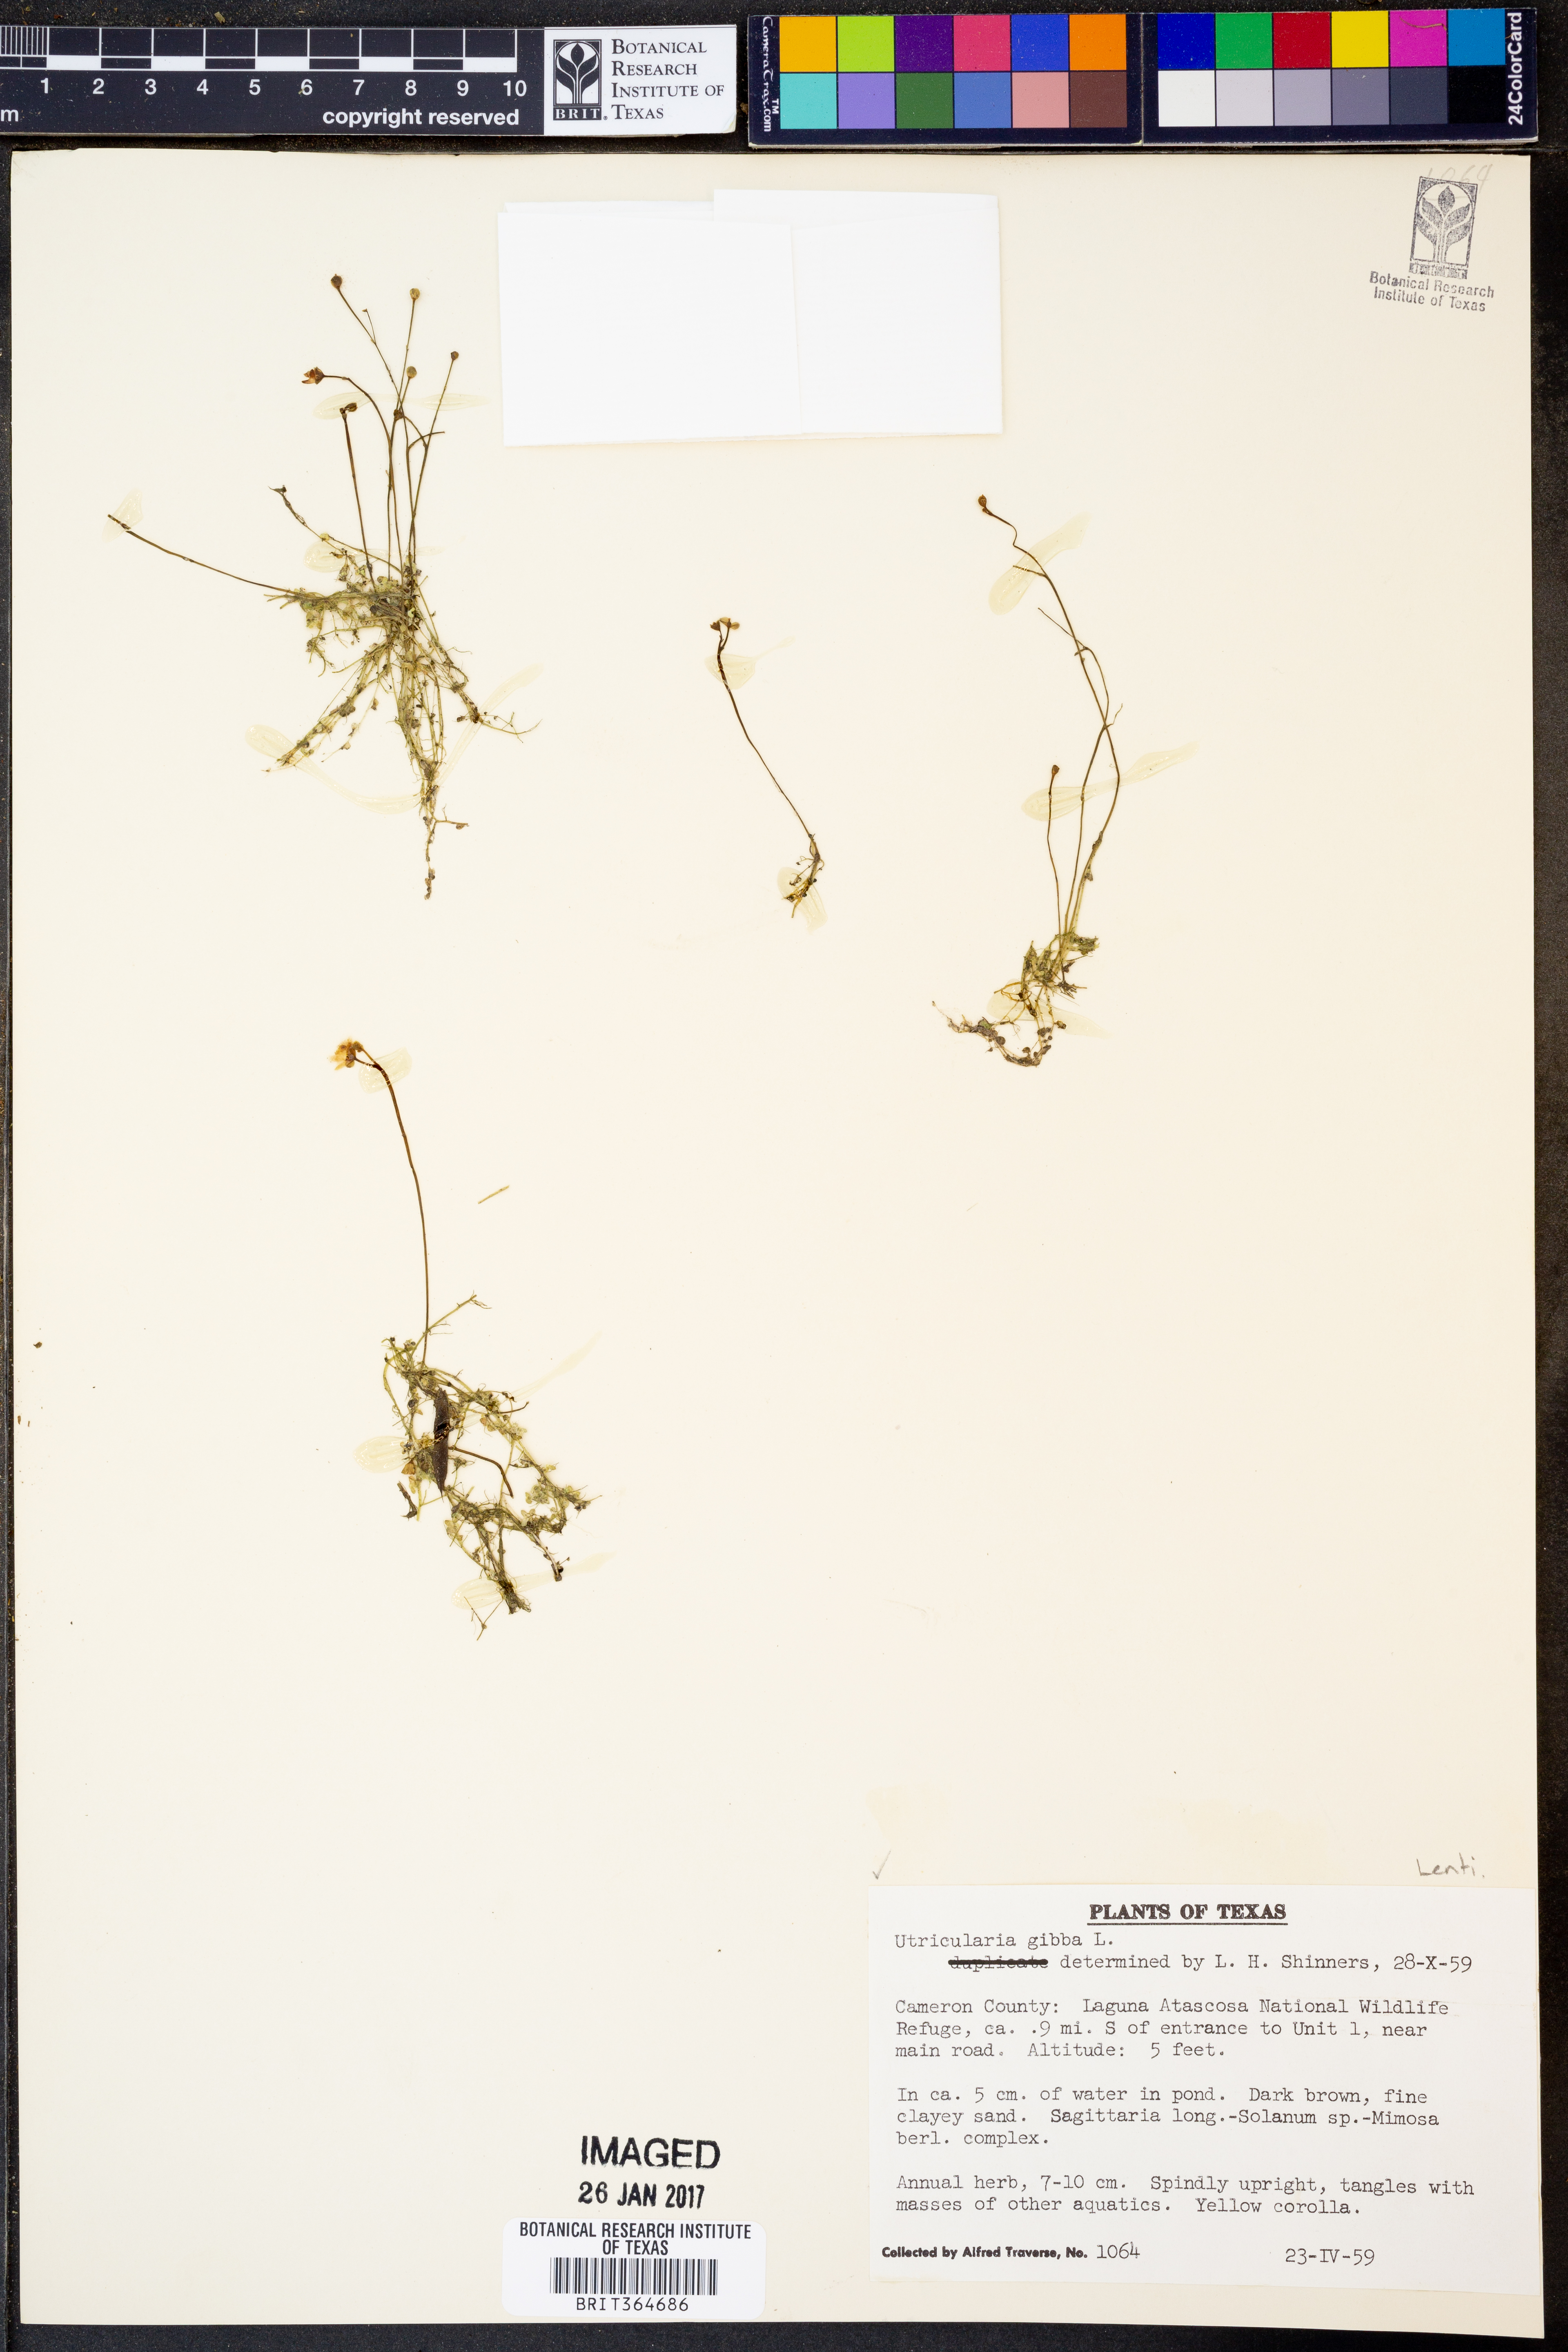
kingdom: Plantae
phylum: Tracheophyta
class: Magnoliopsida
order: Lamiales
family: Lentibulariaceae
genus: Utricularia
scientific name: Utricularia gibba
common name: Humped bladderwort
